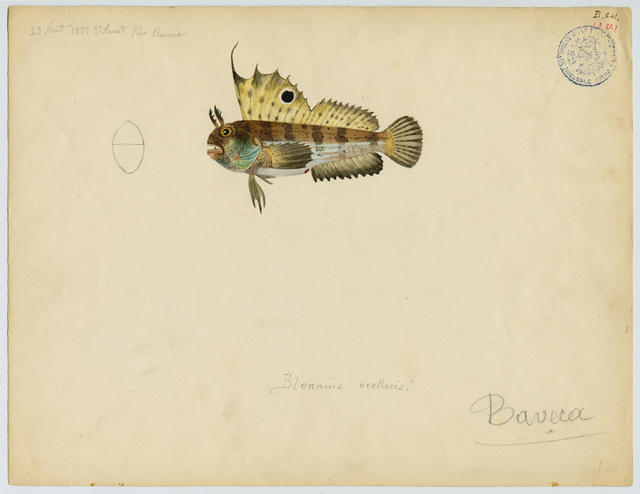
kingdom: Animalia
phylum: Chordata
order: Perciformes
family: Blenniidae
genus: Blennius
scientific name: Blennius ocellaris
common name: Butterfly blenny
